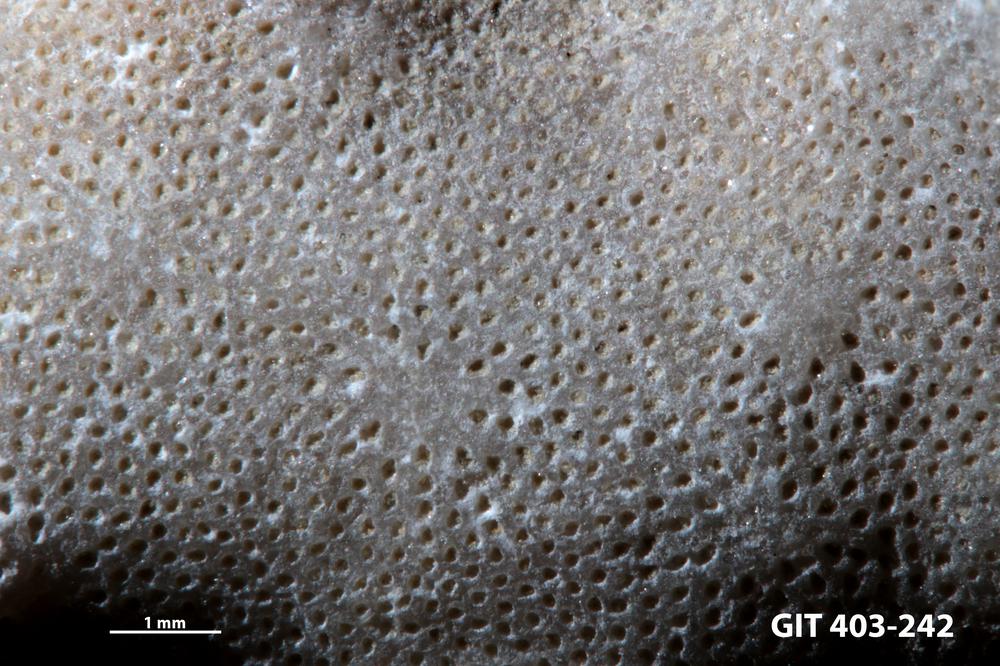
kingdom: Animalia
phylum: Bryozoa
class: Stenolaemata
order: Cystoporida
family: Fistuliporidae
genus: Fistulipora
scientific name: Fistulipora przhidolensis
